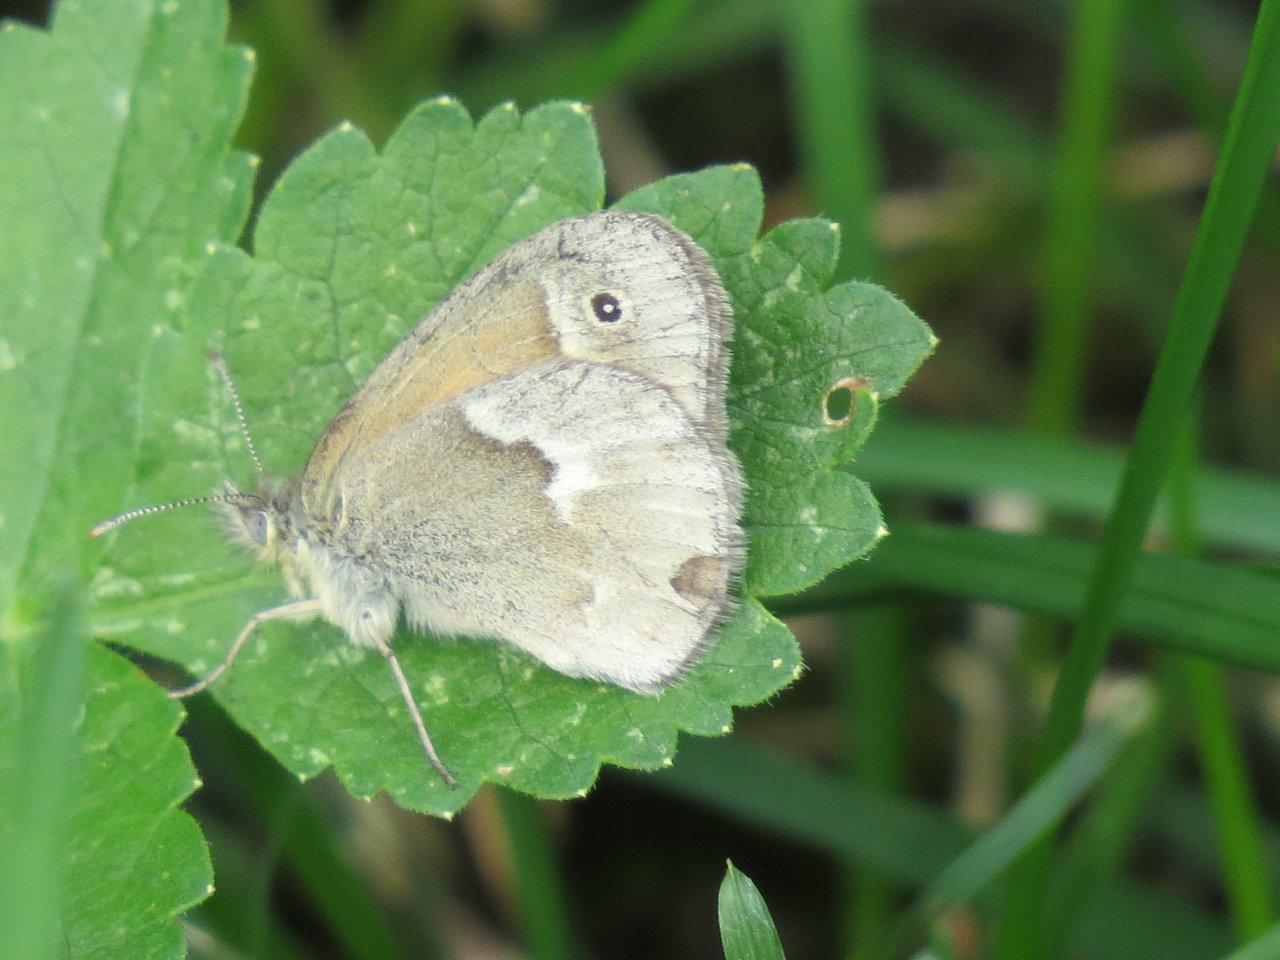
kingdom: Animalia
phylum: Arthropoda
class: Insecta
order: Lepidoptera
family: Nymphalidae
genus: Coenonympha
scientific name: Coenonympha tullia
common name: Large Heath
